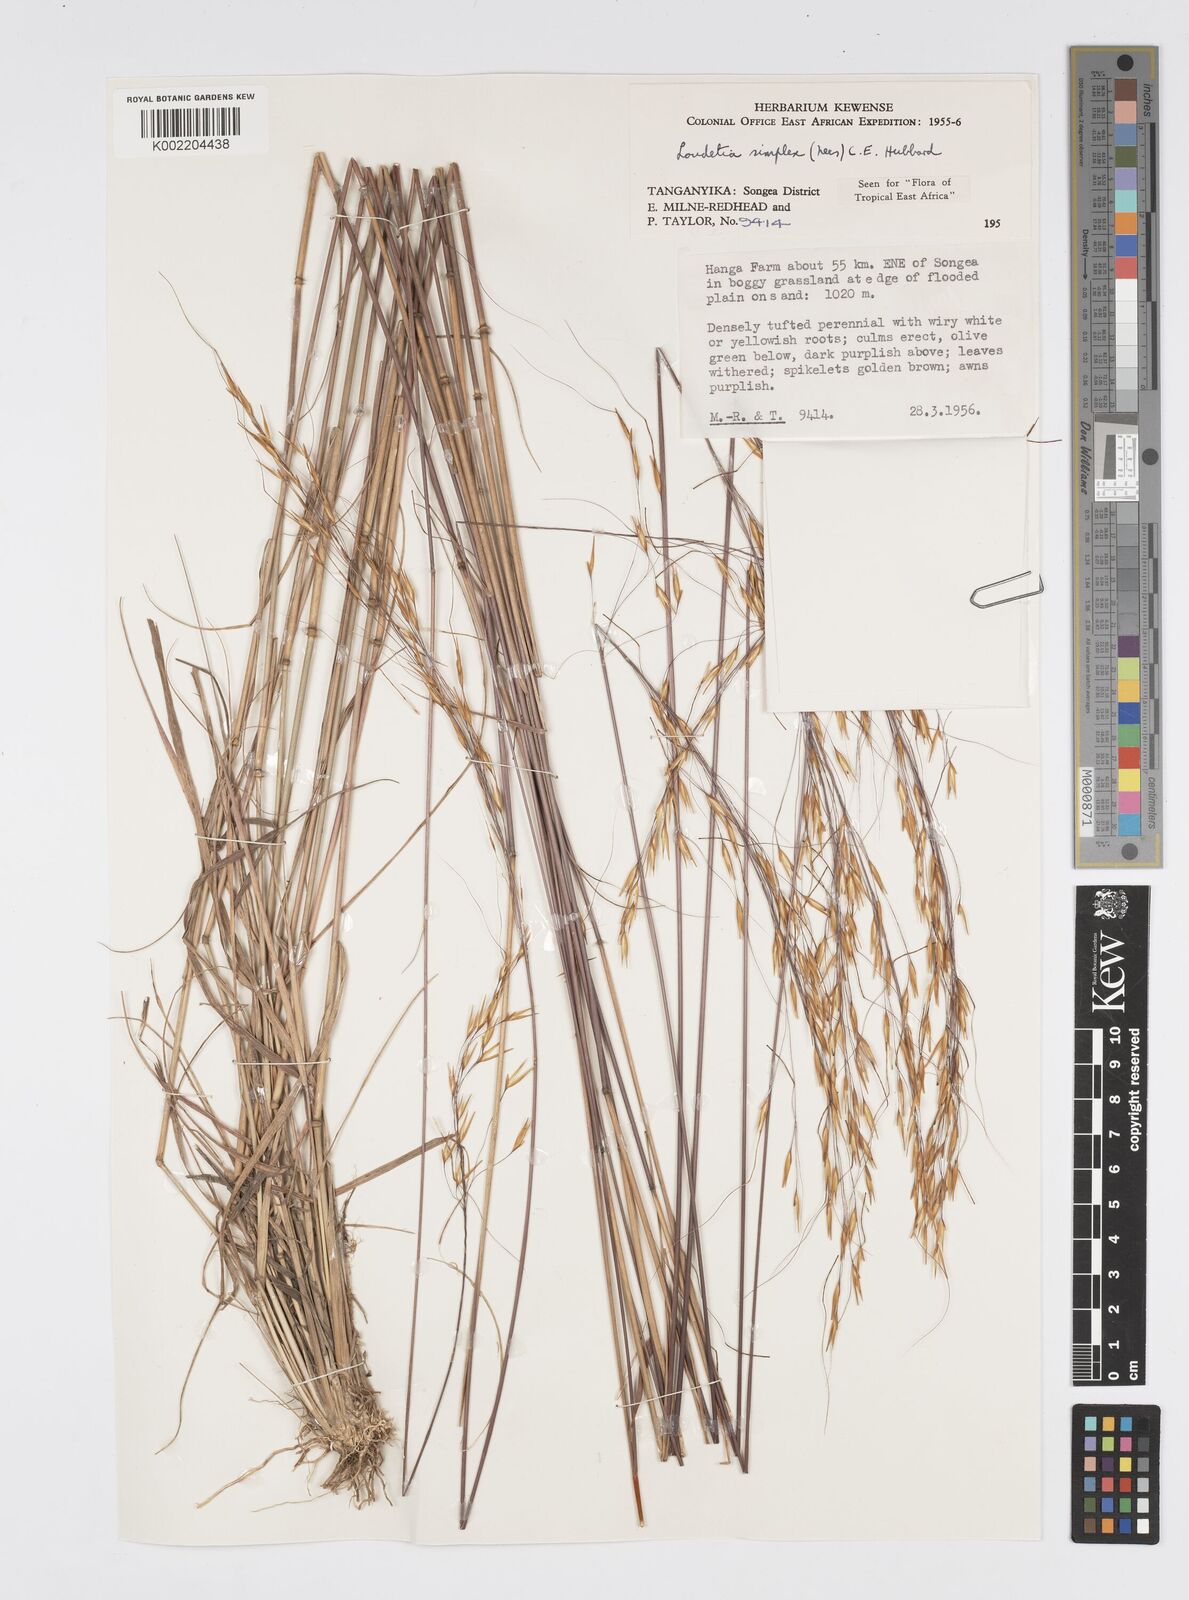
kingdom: Plantae
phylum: Tracheophyta
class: Liliopsida
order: Poales
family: Poaceae
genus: Loudetia
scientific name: Loudetia simplex
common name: Common russet grass
